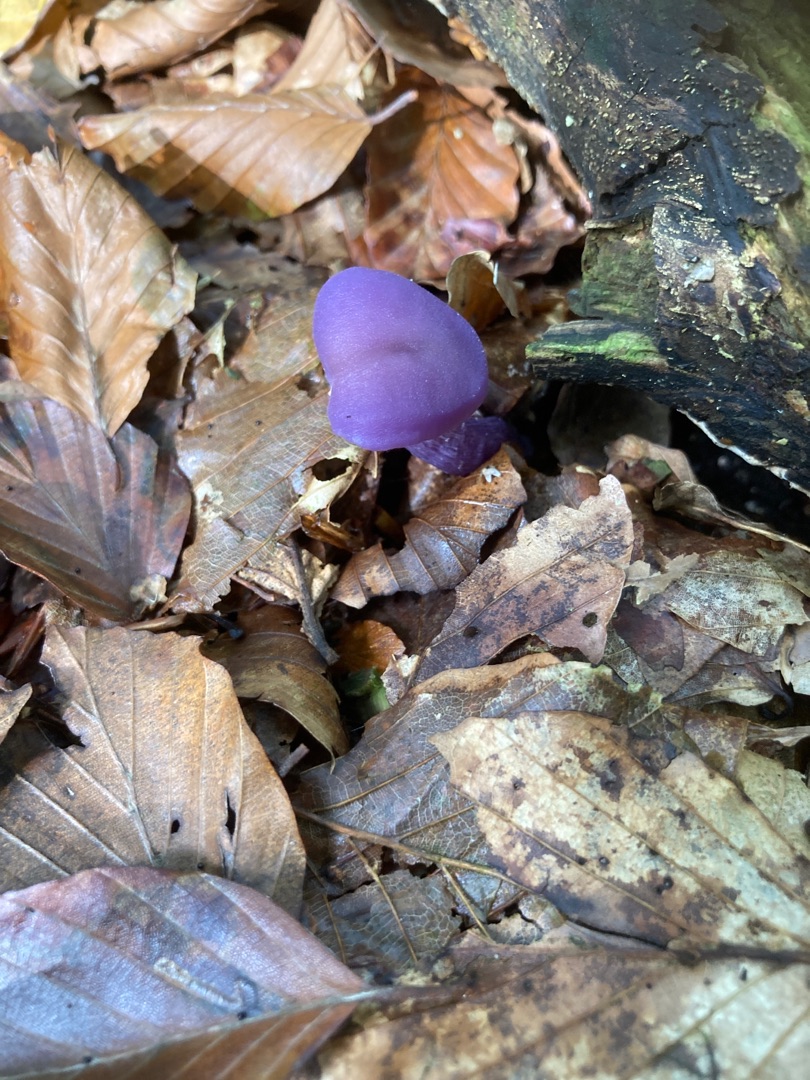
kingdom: Fungi
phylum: Basidiomycota
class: Agaricomycetes
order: Agaricales
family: Hydnangiaceae
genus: Laccaria
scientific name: Laccaria amethystina
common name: Violet ametysthat
